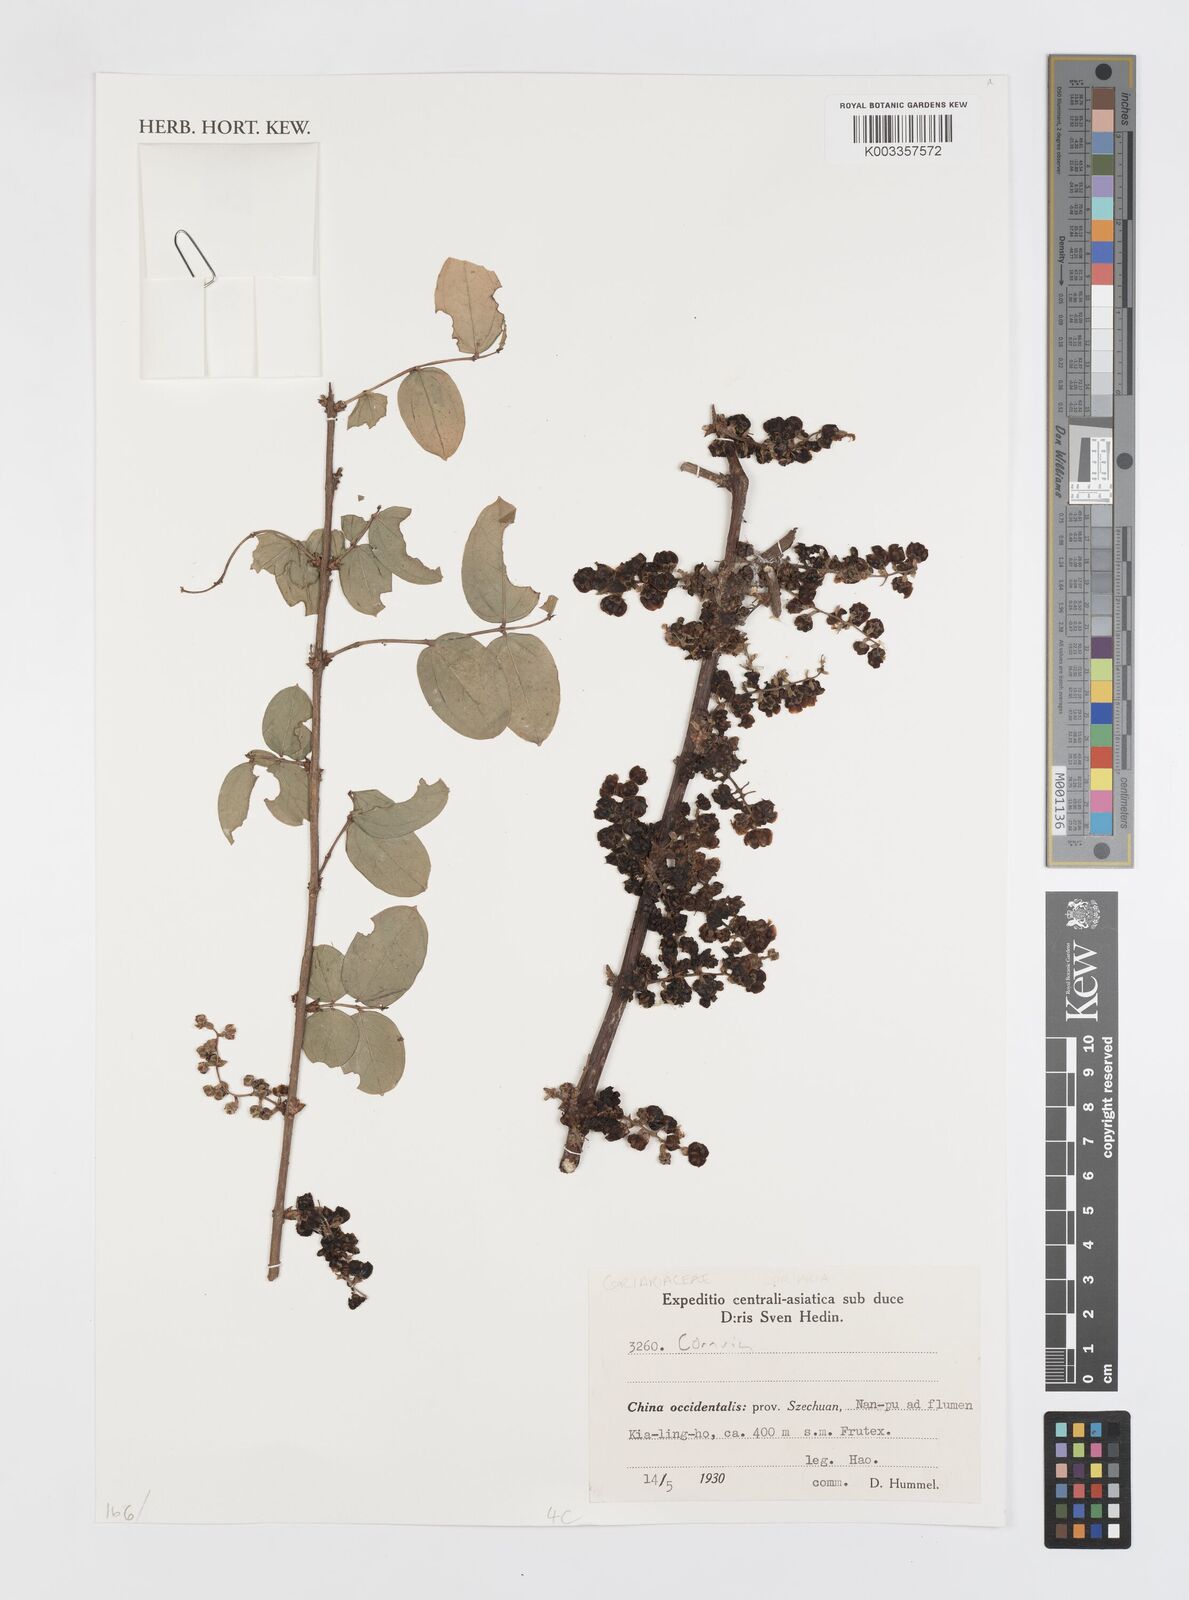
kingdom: Plantae
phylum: Tracheophyta
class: Magnoliopsida
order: Cucurbitales
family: Coriariaceae
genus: Coriaria
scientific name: Coriaria
